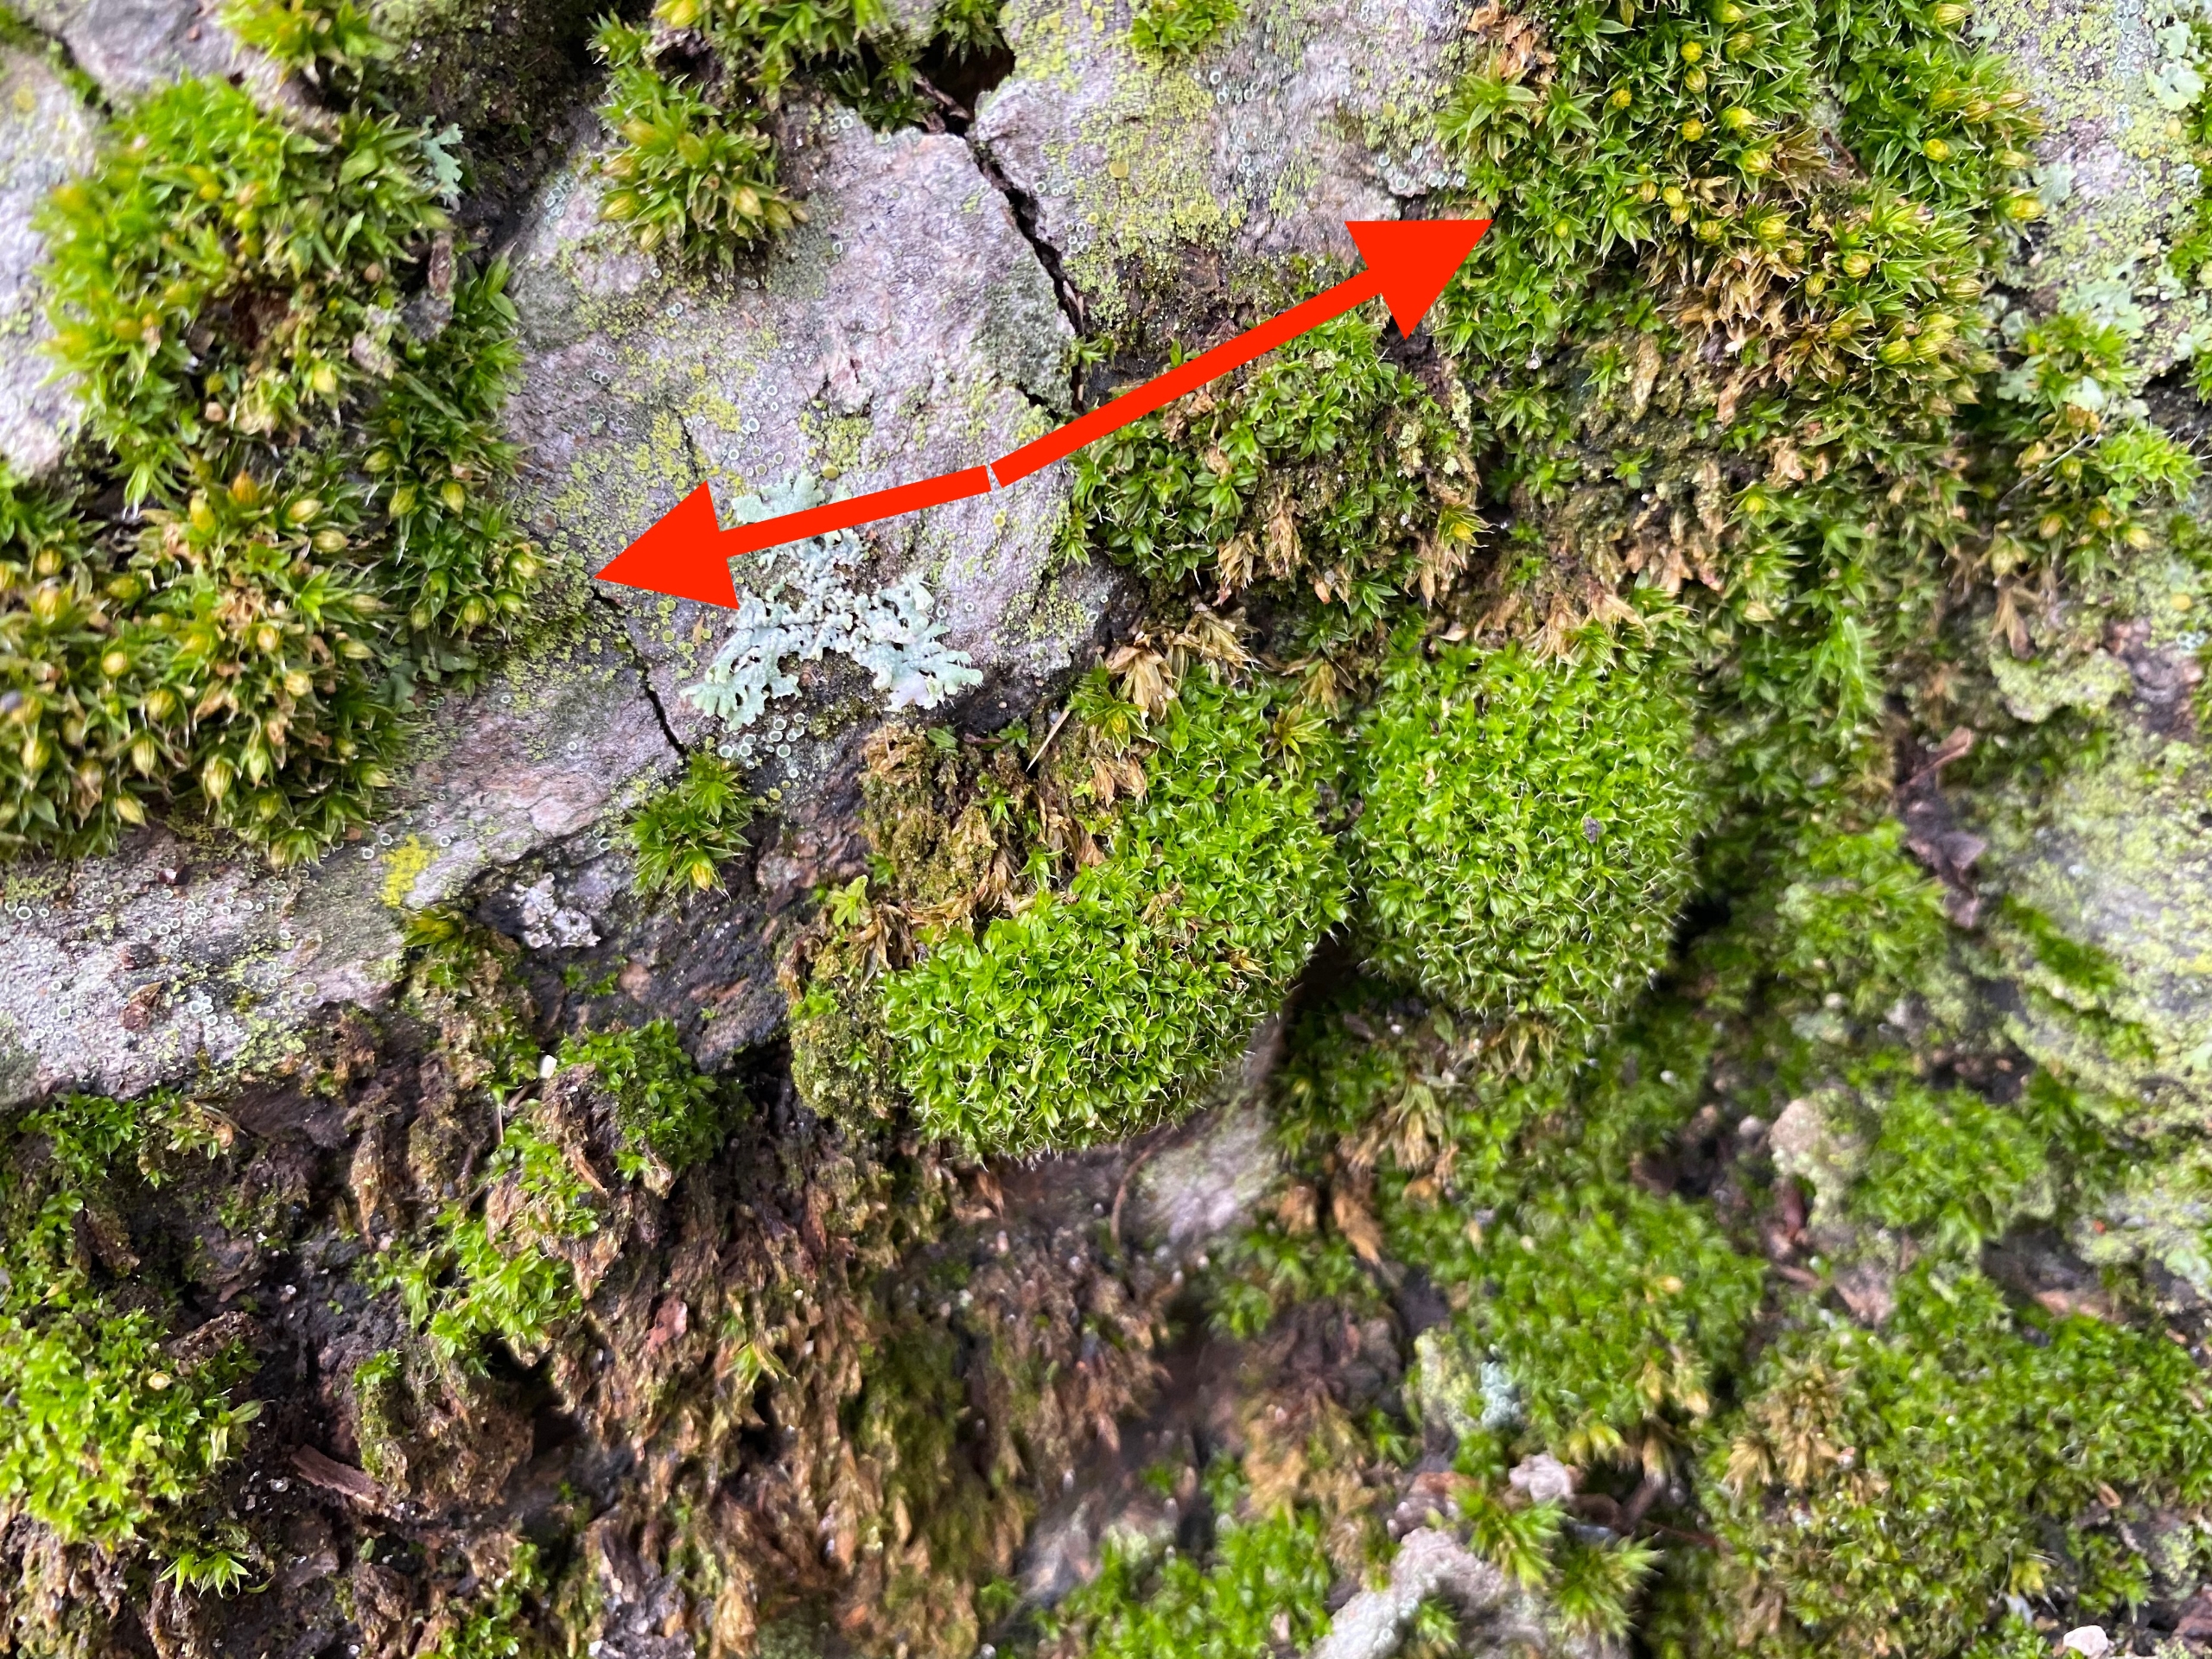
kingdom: Plantae
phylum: Bryophyta
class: Bryopsida
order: Orthotrichales
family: Orthotrichaceae
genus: Orthotrichum
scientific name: Orthotrichum diaphanum
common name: Hårspidset furehætte
